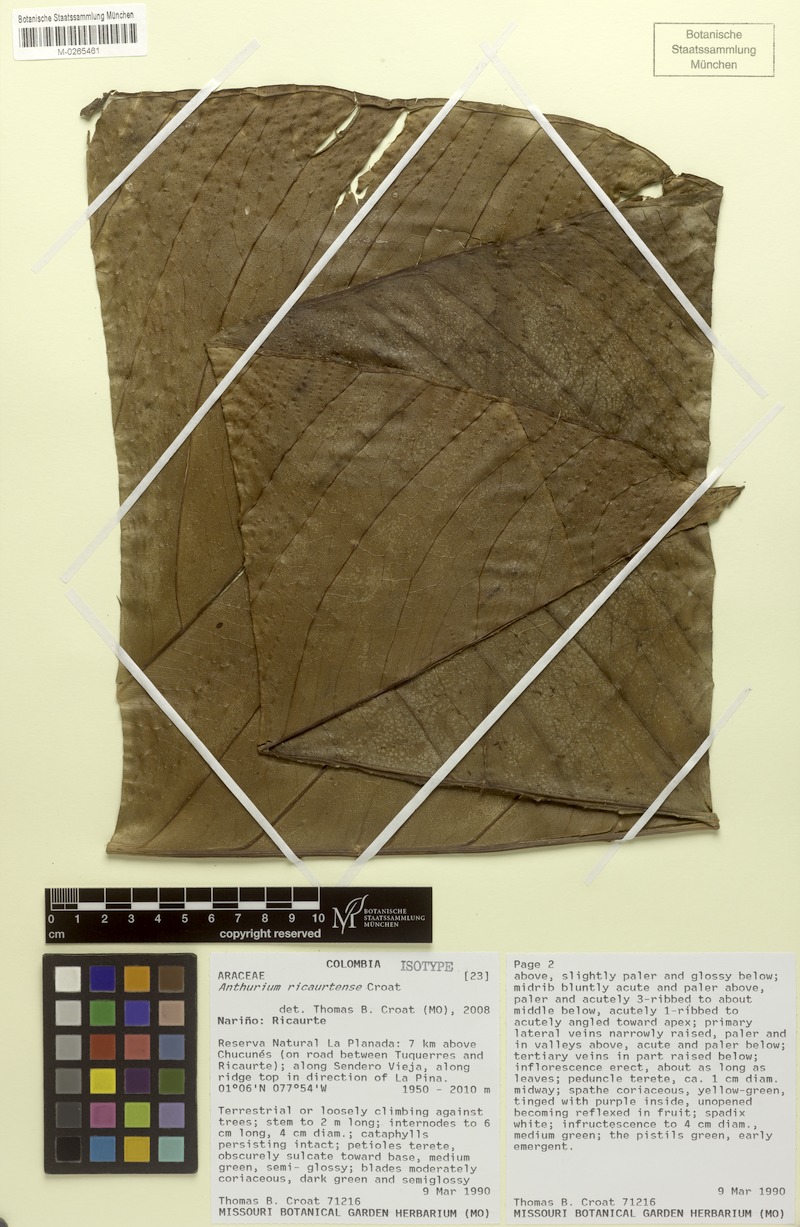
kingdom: Plantae
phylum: Tracheophyta
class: Liliopsida
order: Alismatales
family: Araceae
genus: Anthurium
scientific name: Anthurium ricaurtense
